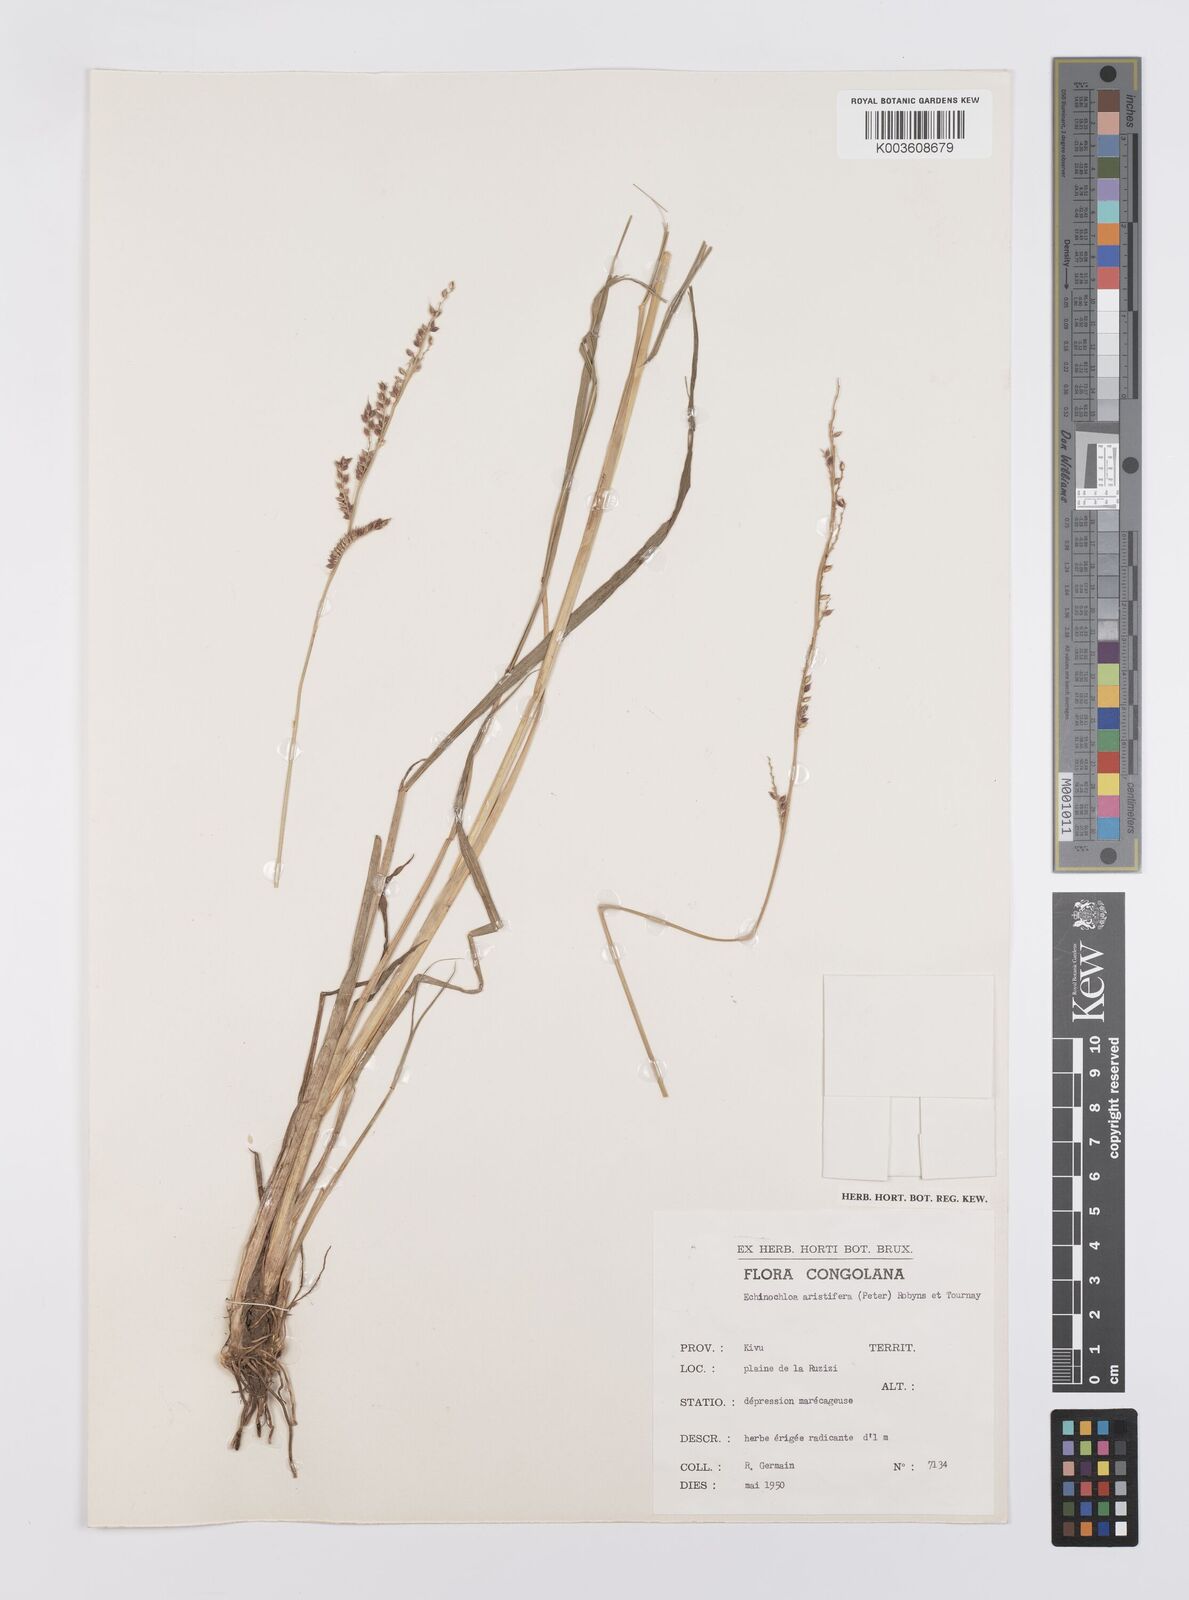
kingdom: Plantae
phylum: Tracheophyta
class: Liliopsida
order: Poales
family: Poaceae
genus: Echinochloa
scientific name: Echinochloa haploclada
